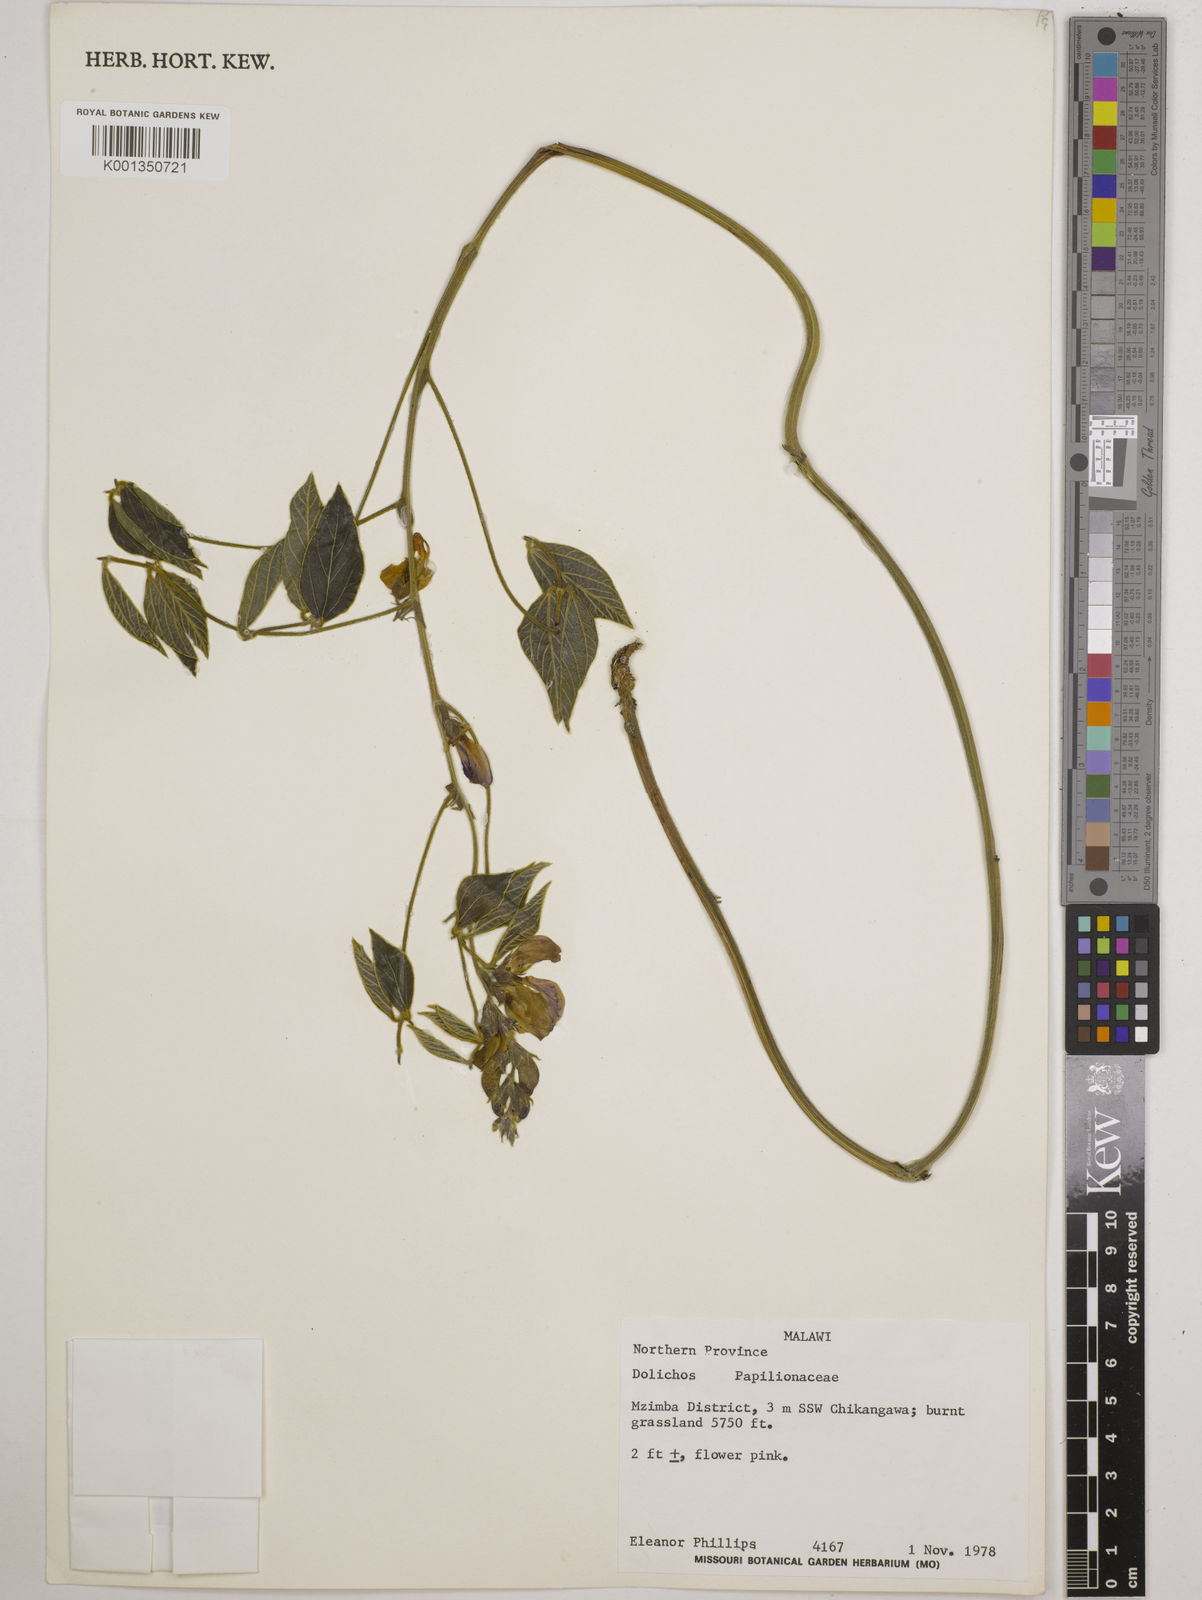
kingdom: Plantae
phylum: Tracheophyta
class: Magnoliopsida
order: Fabales
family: Fabaceae
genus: Dolichos
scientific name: Dolichos
